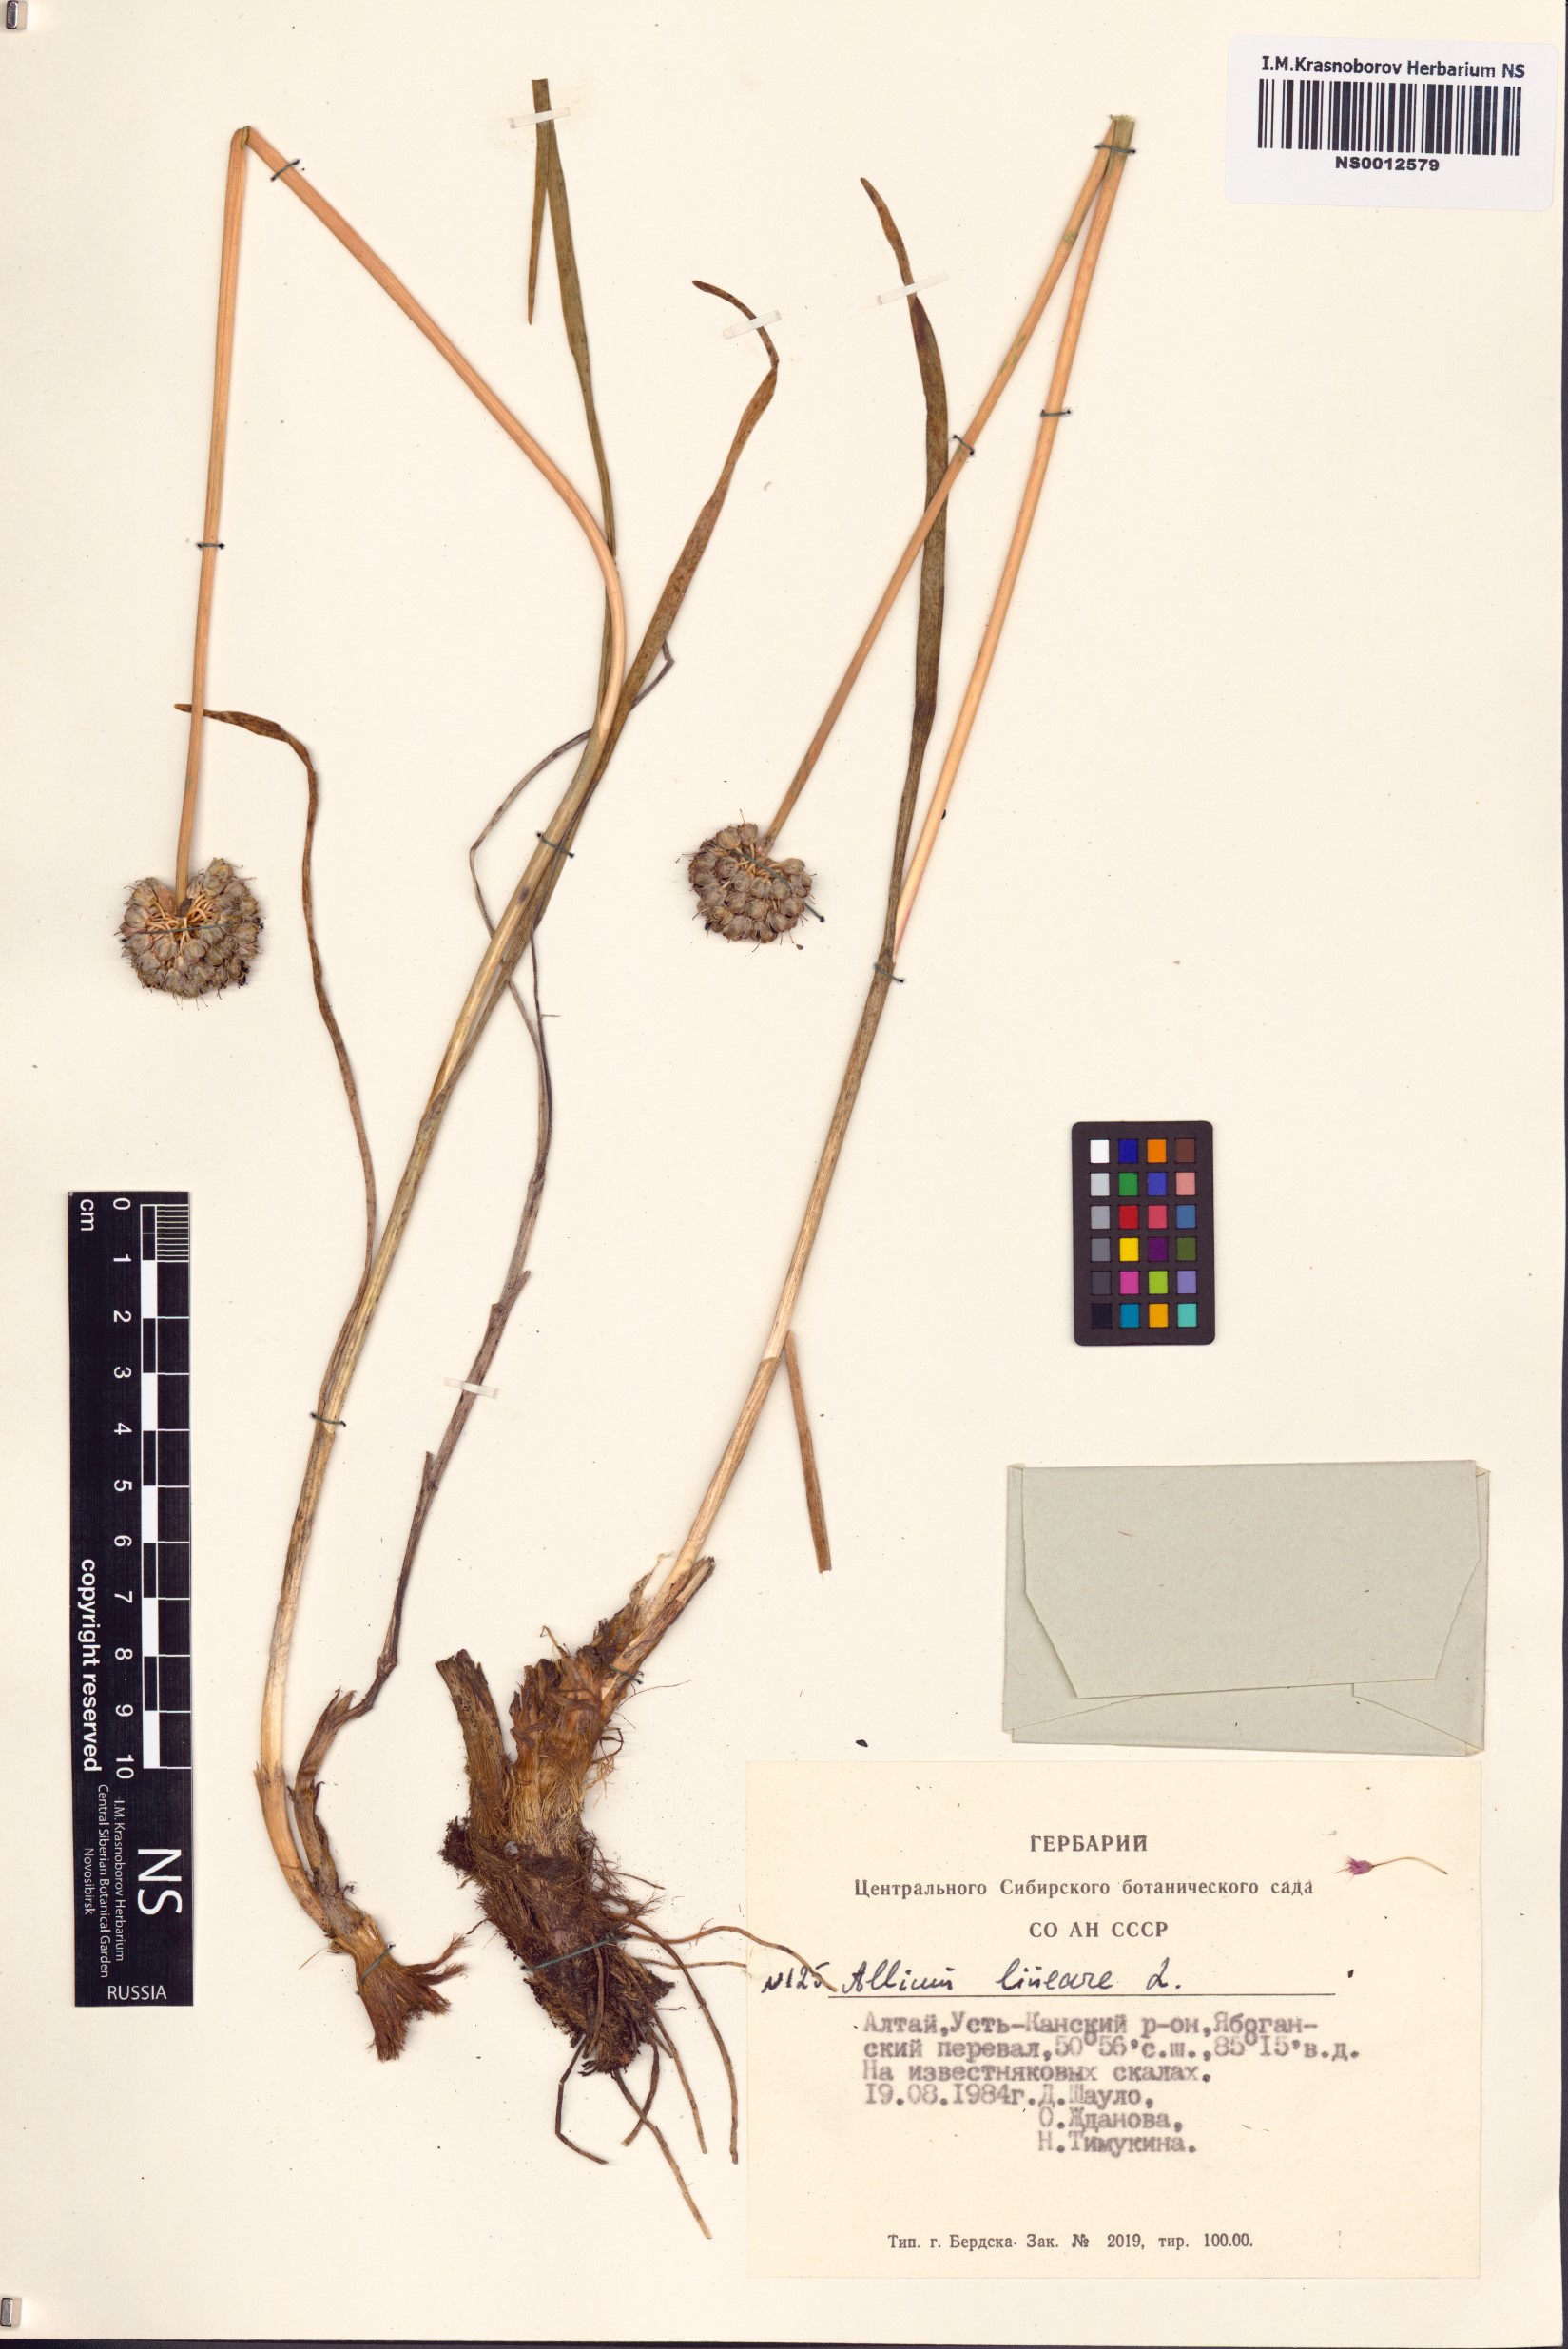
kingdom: Plantae
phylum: Tracheophyta
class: Liliopsida
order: Asparagales
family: Amaryllidaceae
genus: Allium
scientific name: Allium lineare
